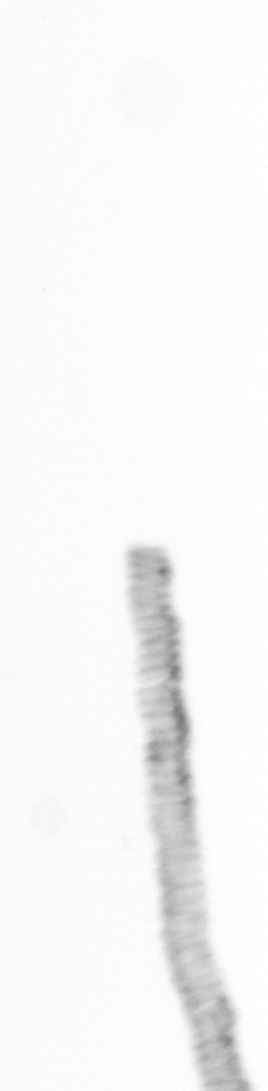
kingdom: Chromista
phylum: Ochrophyta
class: Bacillariophyceae
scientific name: Bacillariophyceae
